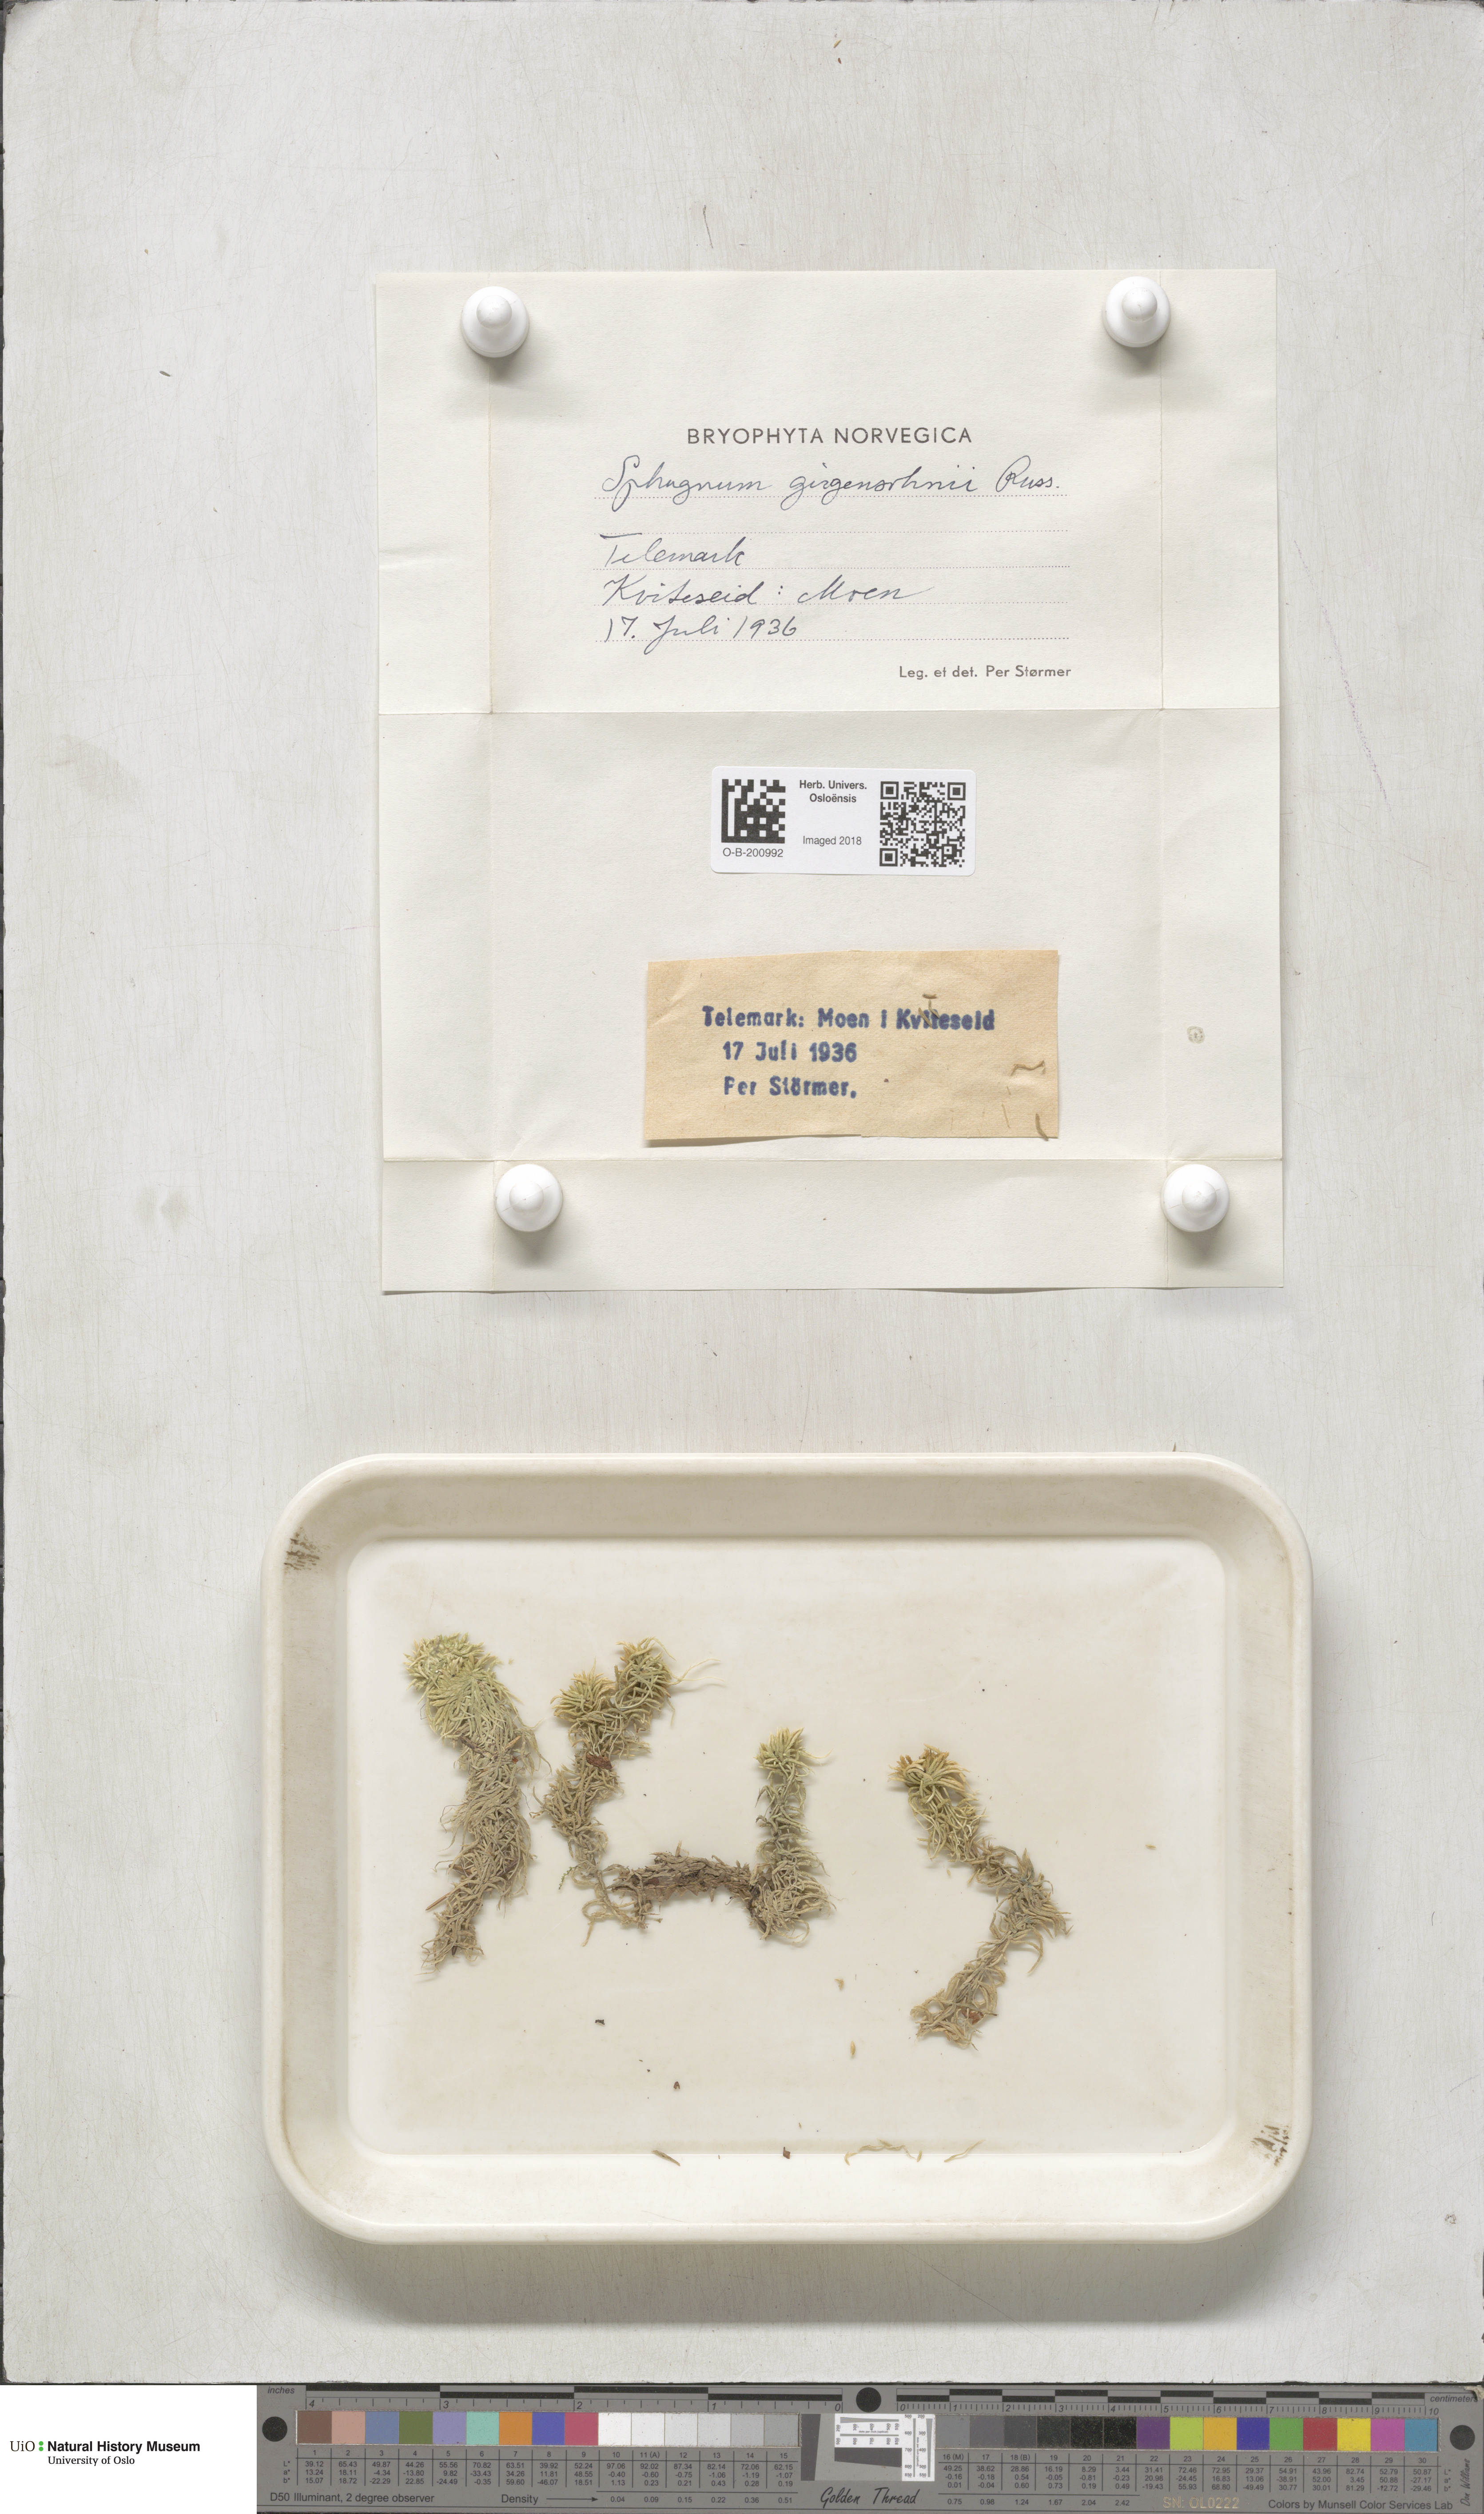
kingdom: Plantae
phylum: Bryophyta
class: Sphagnopsida
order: Sphagnales
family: Sphagnaceae
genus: Sphagnum
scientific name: Sphagnum girgensohnii
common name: Girgensohn's peat moss
